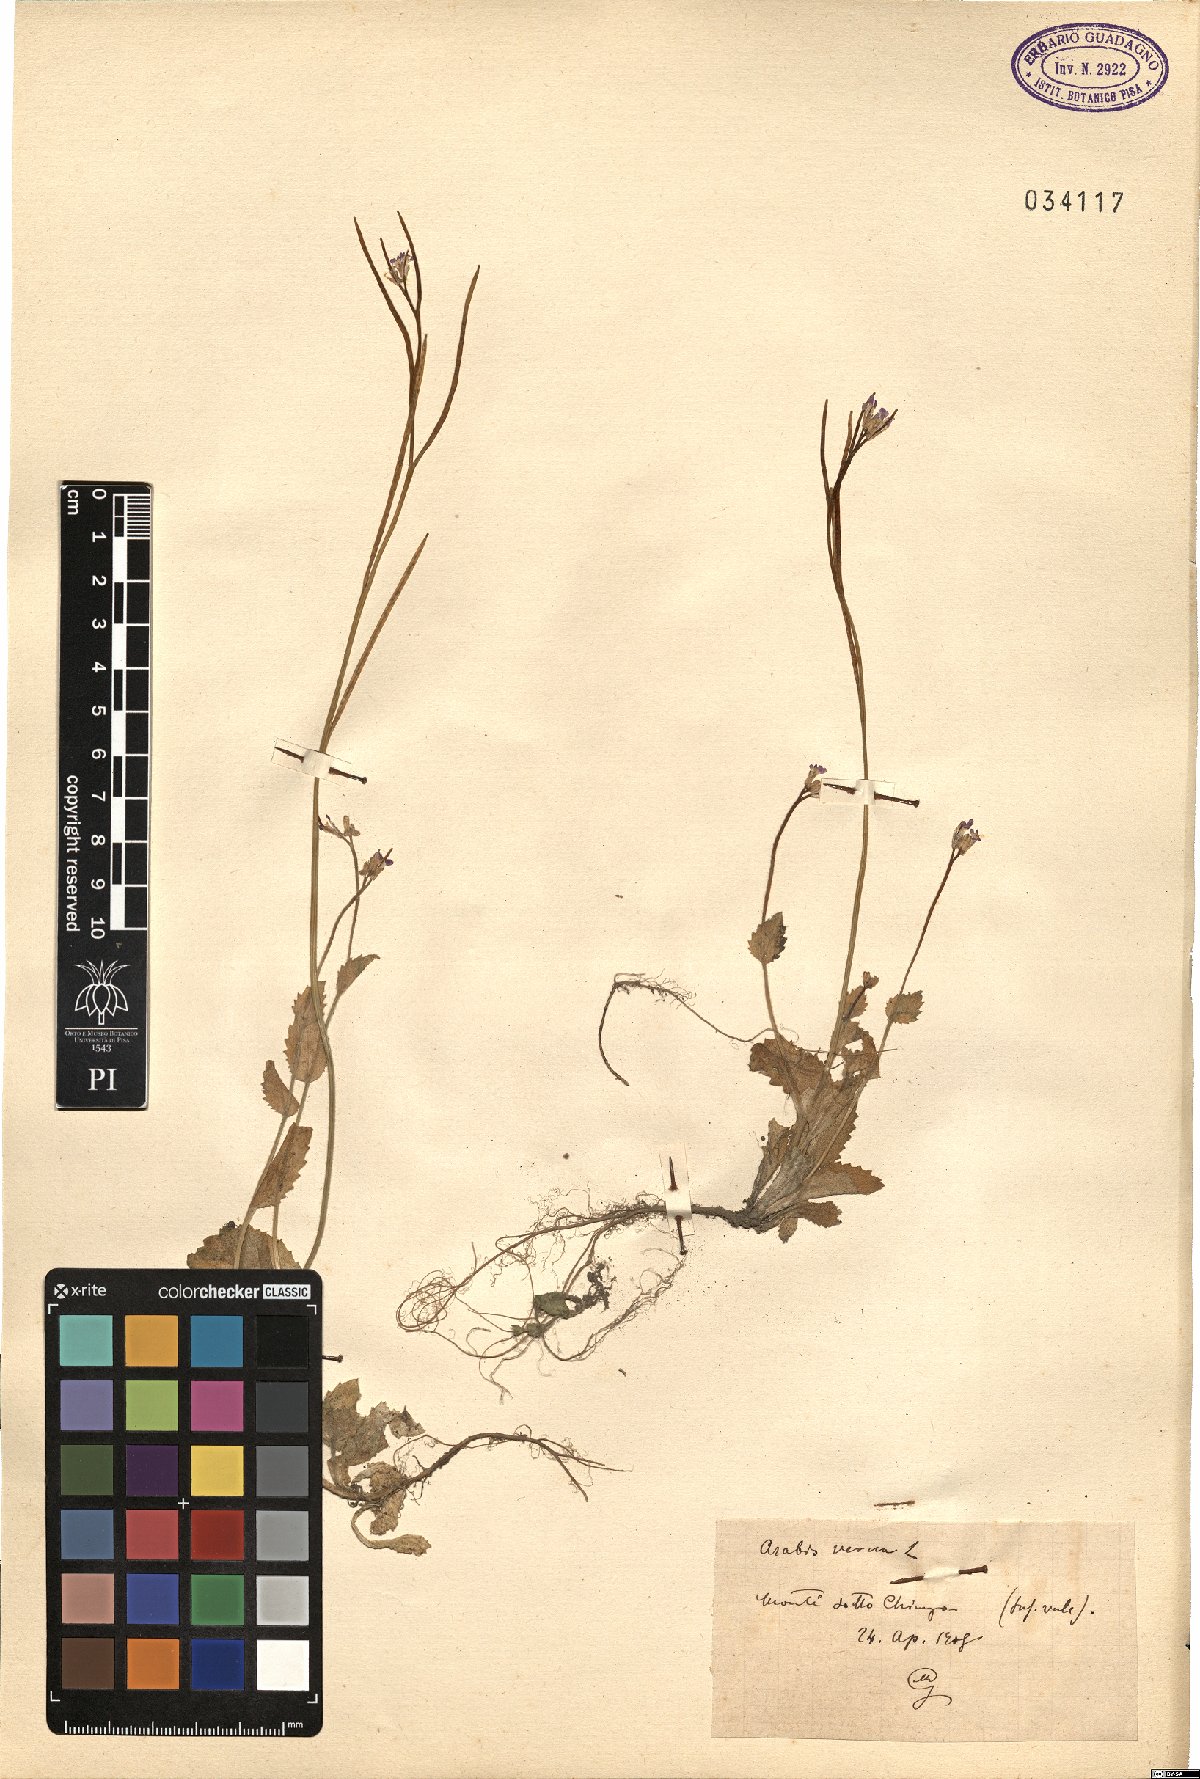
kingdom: Plantae
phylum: Tracheophyta
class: Magnoliopsida
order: Brassicales
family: Brassicaceae
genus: Arabis
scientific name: Arabis verna
